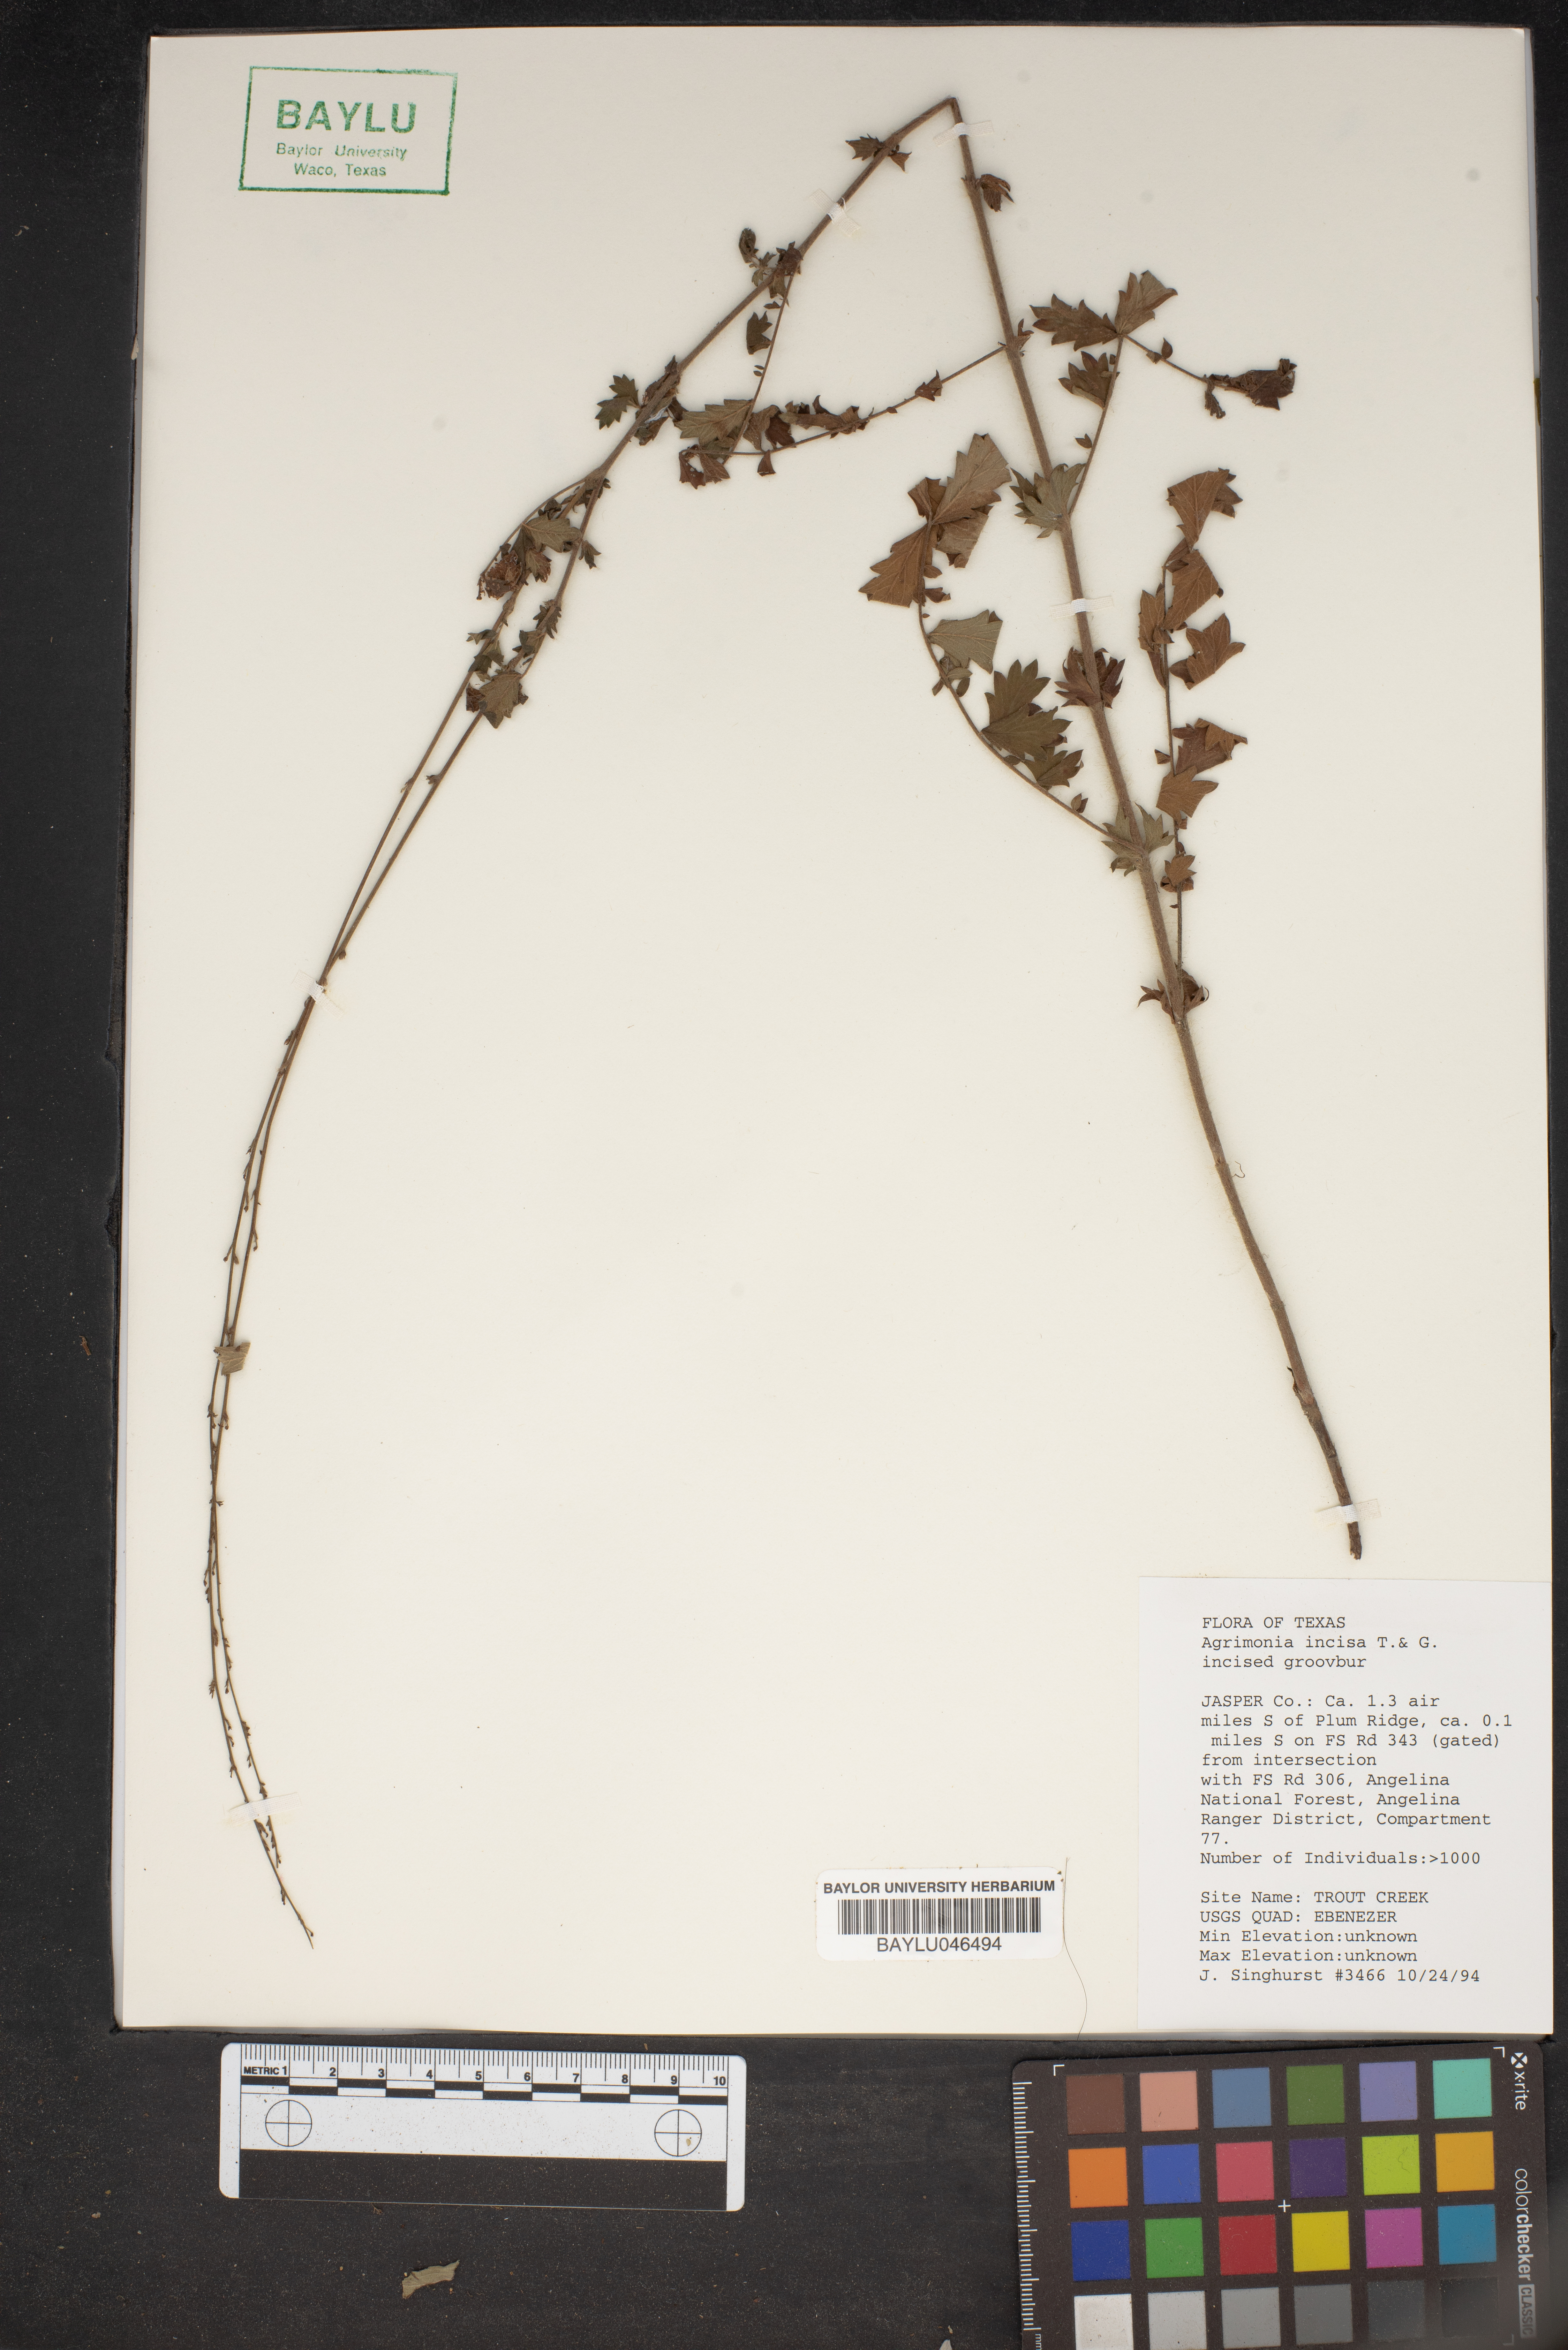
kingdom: Plantae
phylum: Tracheophyta
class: Magnoliopsida
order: Rosales
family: Rosaceae
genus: Agrimonia
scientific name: Agrimonia incisa
